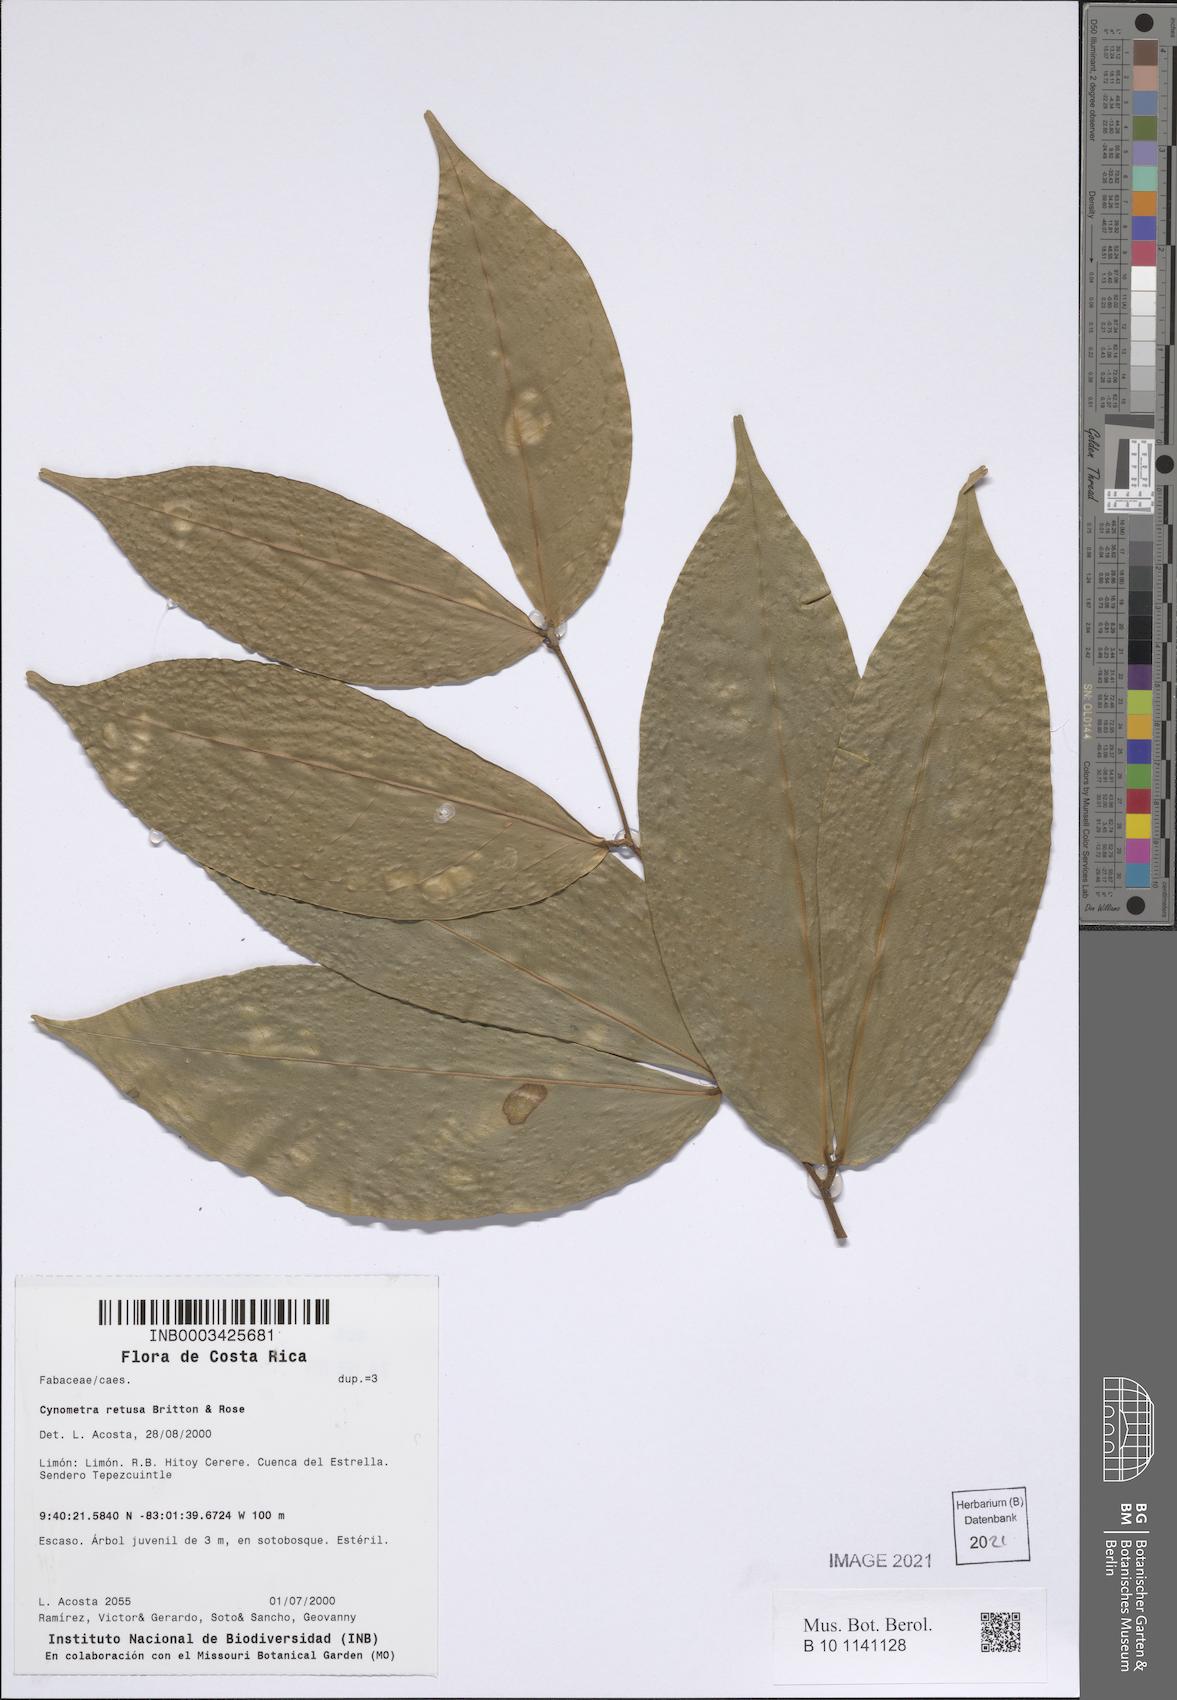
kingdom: Plantae
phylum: Tracheophyta
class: Magnoliopsida
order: Fabales
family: Fabaceae
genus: Cynometra
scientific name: Cynometra retusa
